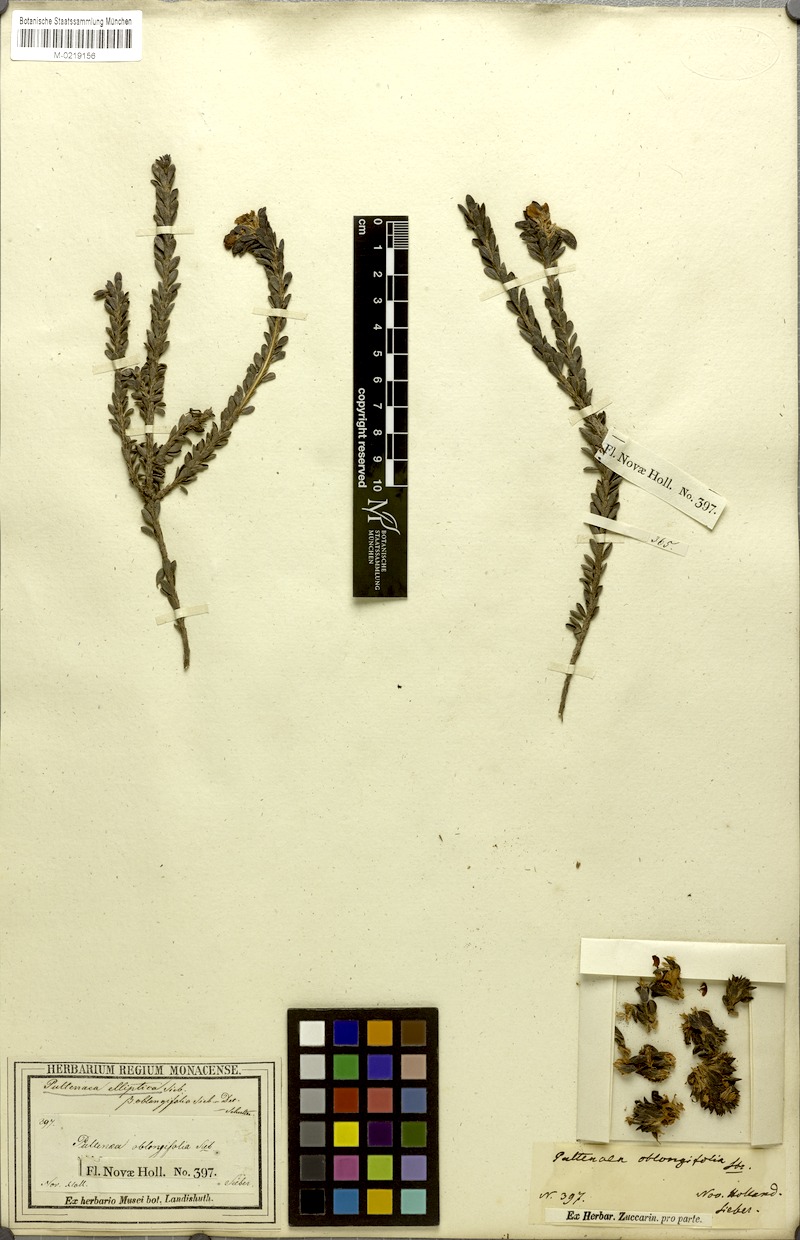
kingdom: Plantae
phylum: Tracheophyta
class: Magnoliopsida
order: Fabales
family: Fabaceae
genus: Pultenaea
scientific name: Pultenaea
